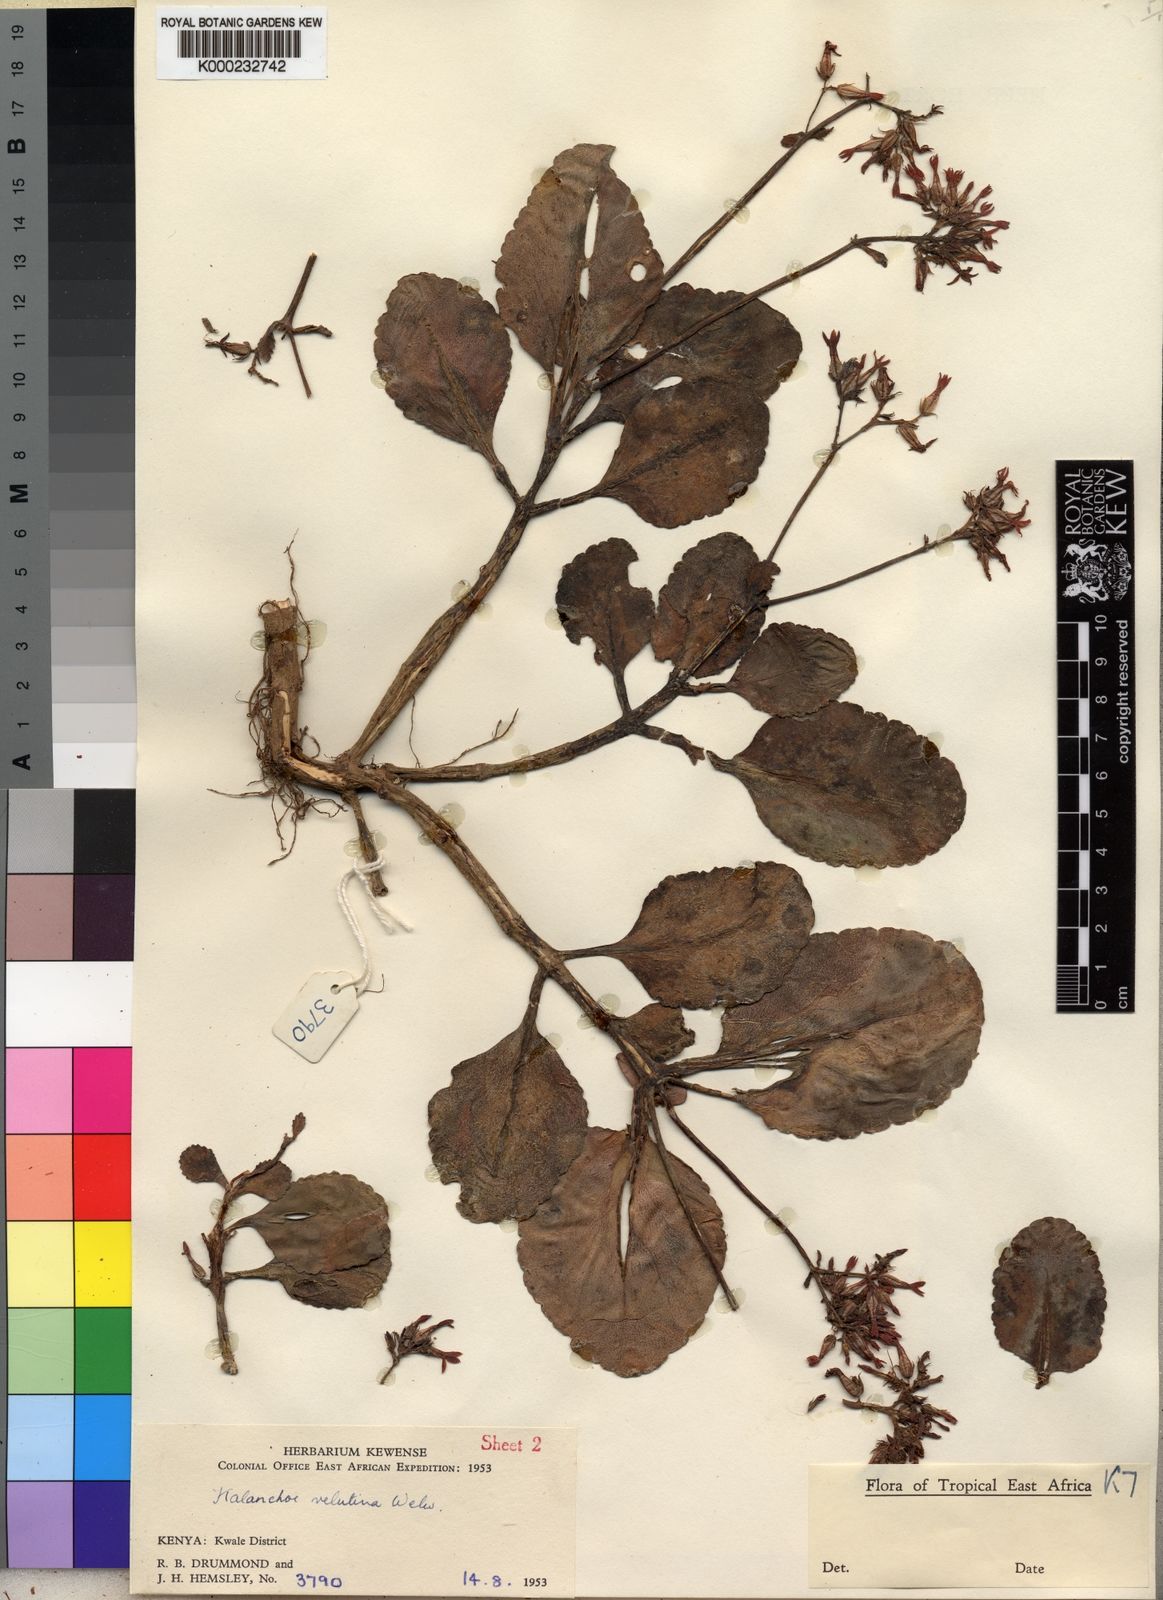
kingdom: Plantae
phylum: Tracheophyta
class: Magnoliopsida
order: Saxifragales
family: Crassulaceae
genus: Kalanchoe
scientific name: Kalanchoe lateritia
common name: Kalanchoe
